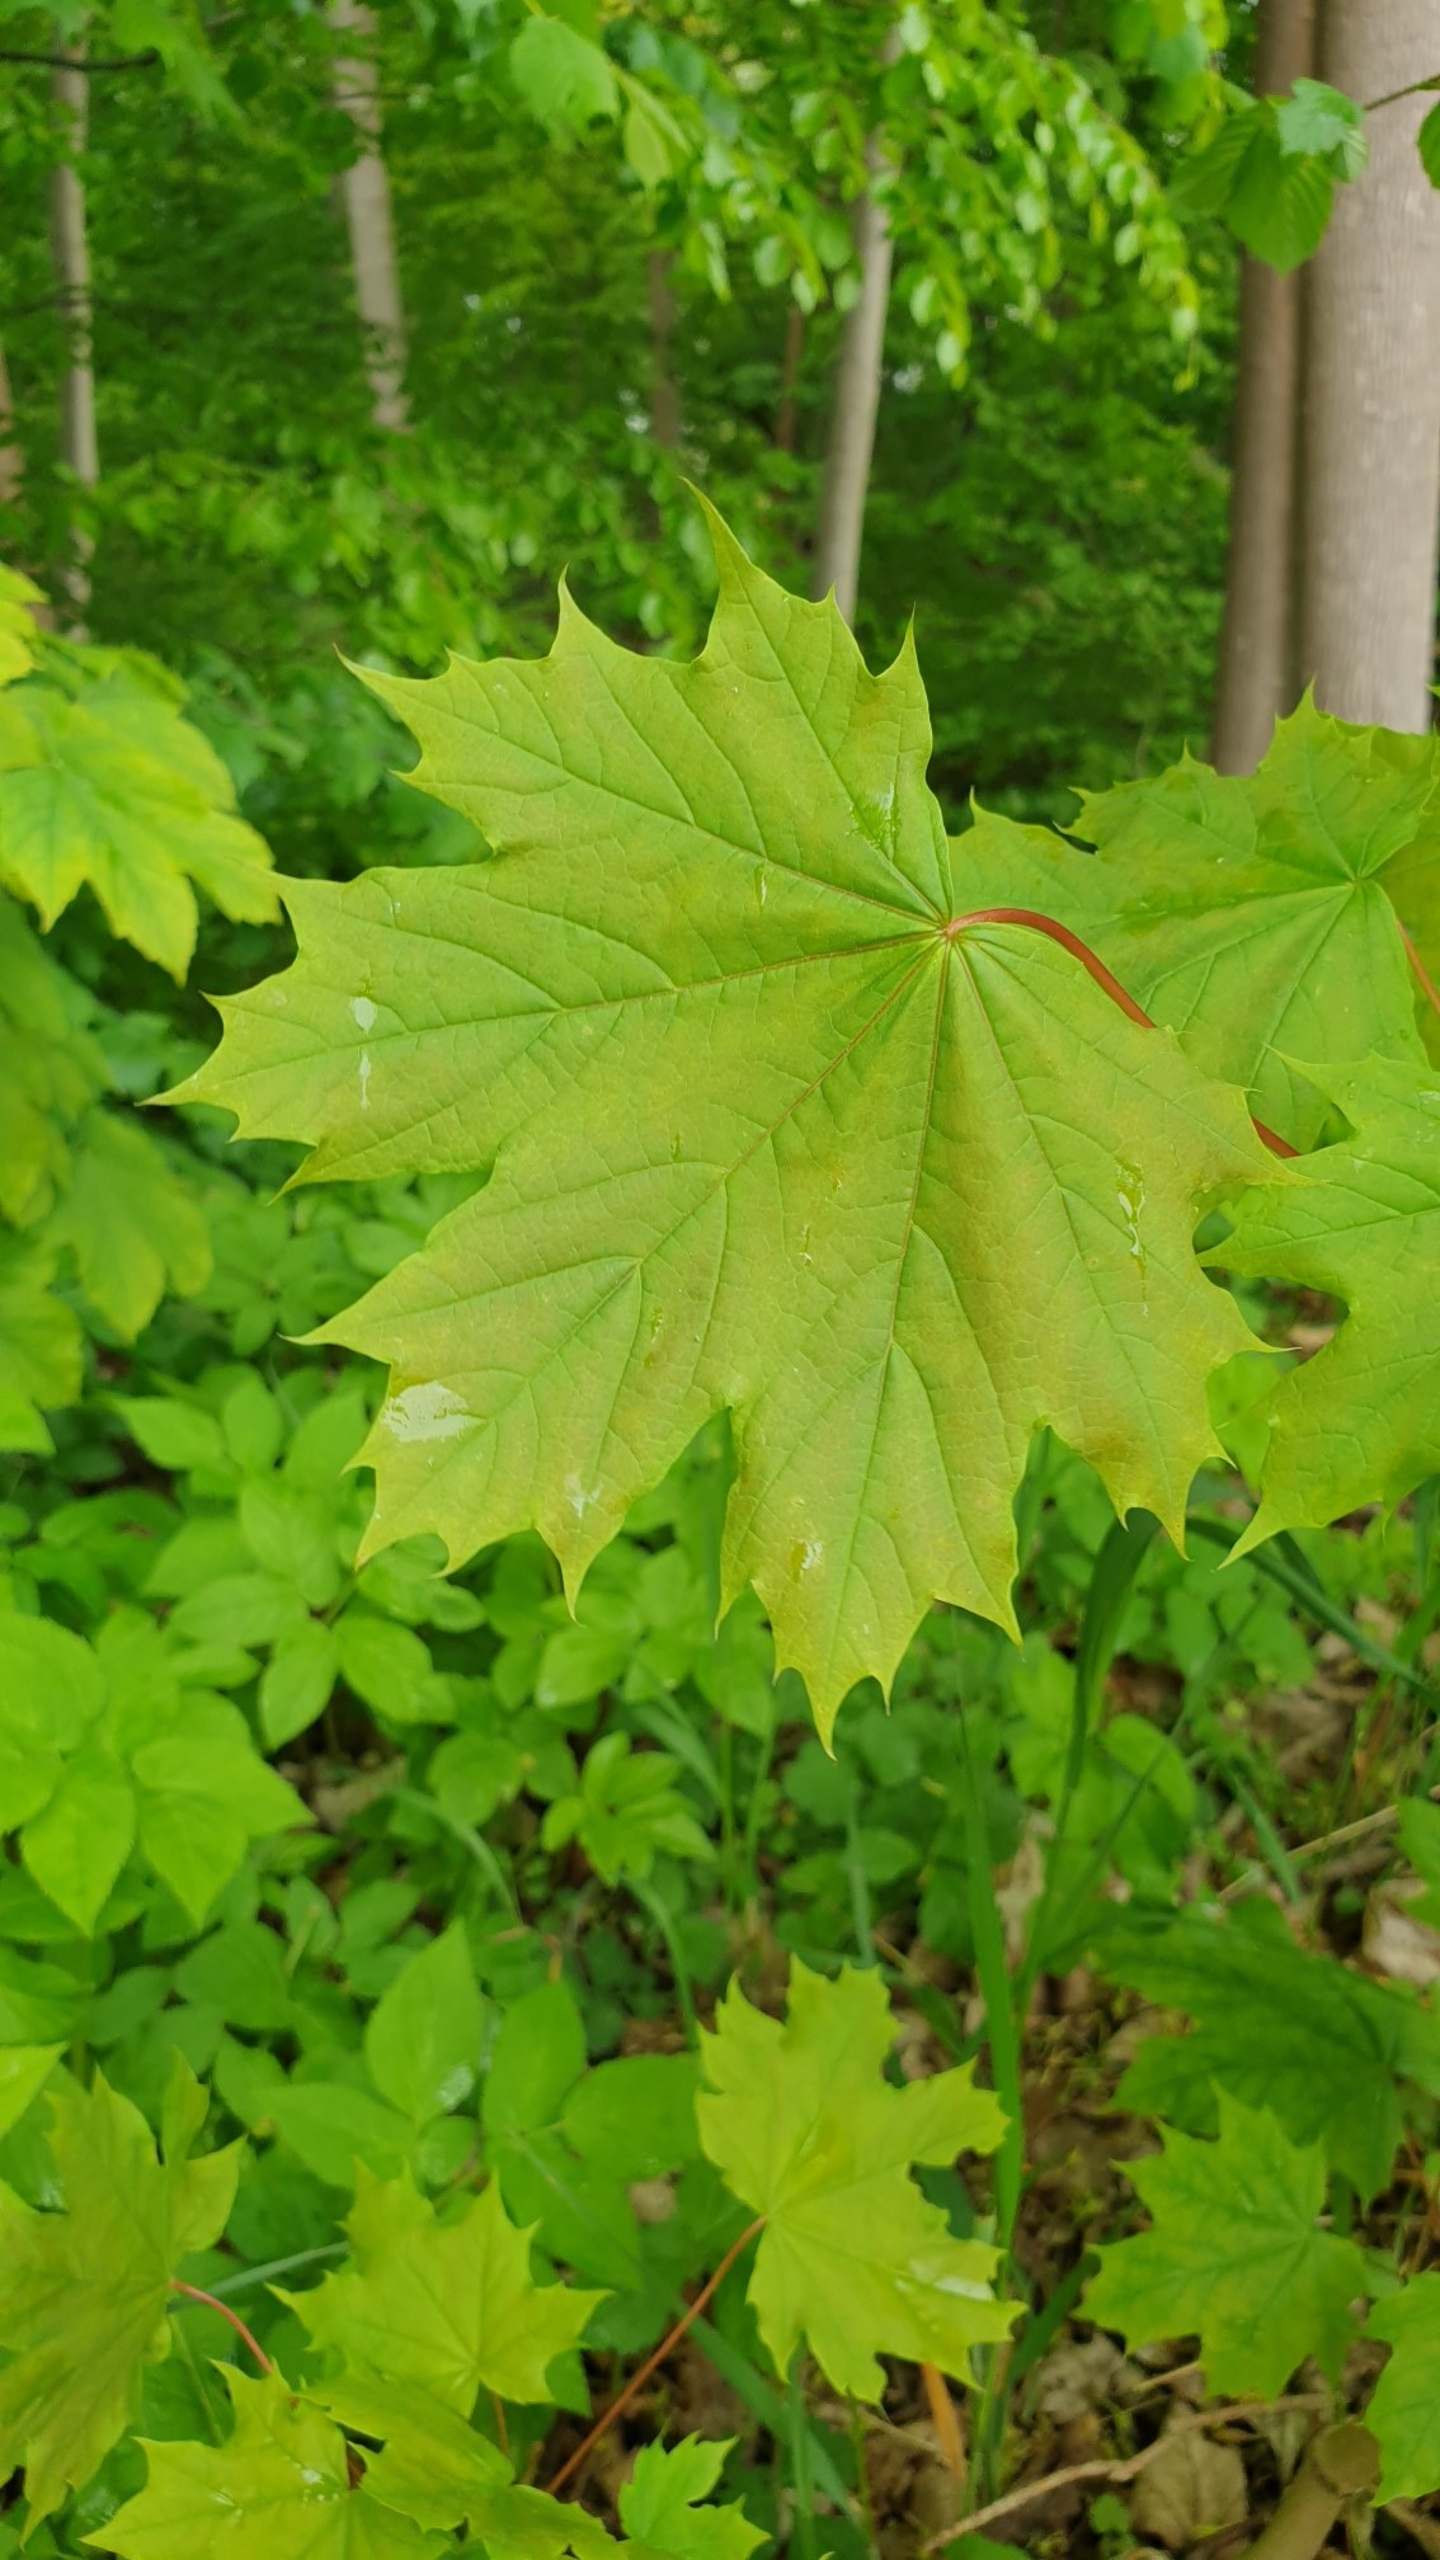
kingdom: Plantae
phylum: Tracheophyta
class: Magnoliopsida
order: Sapindales
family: Sapindaceae
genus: Acer
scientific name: Acer platanoides
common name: Spids-løn
